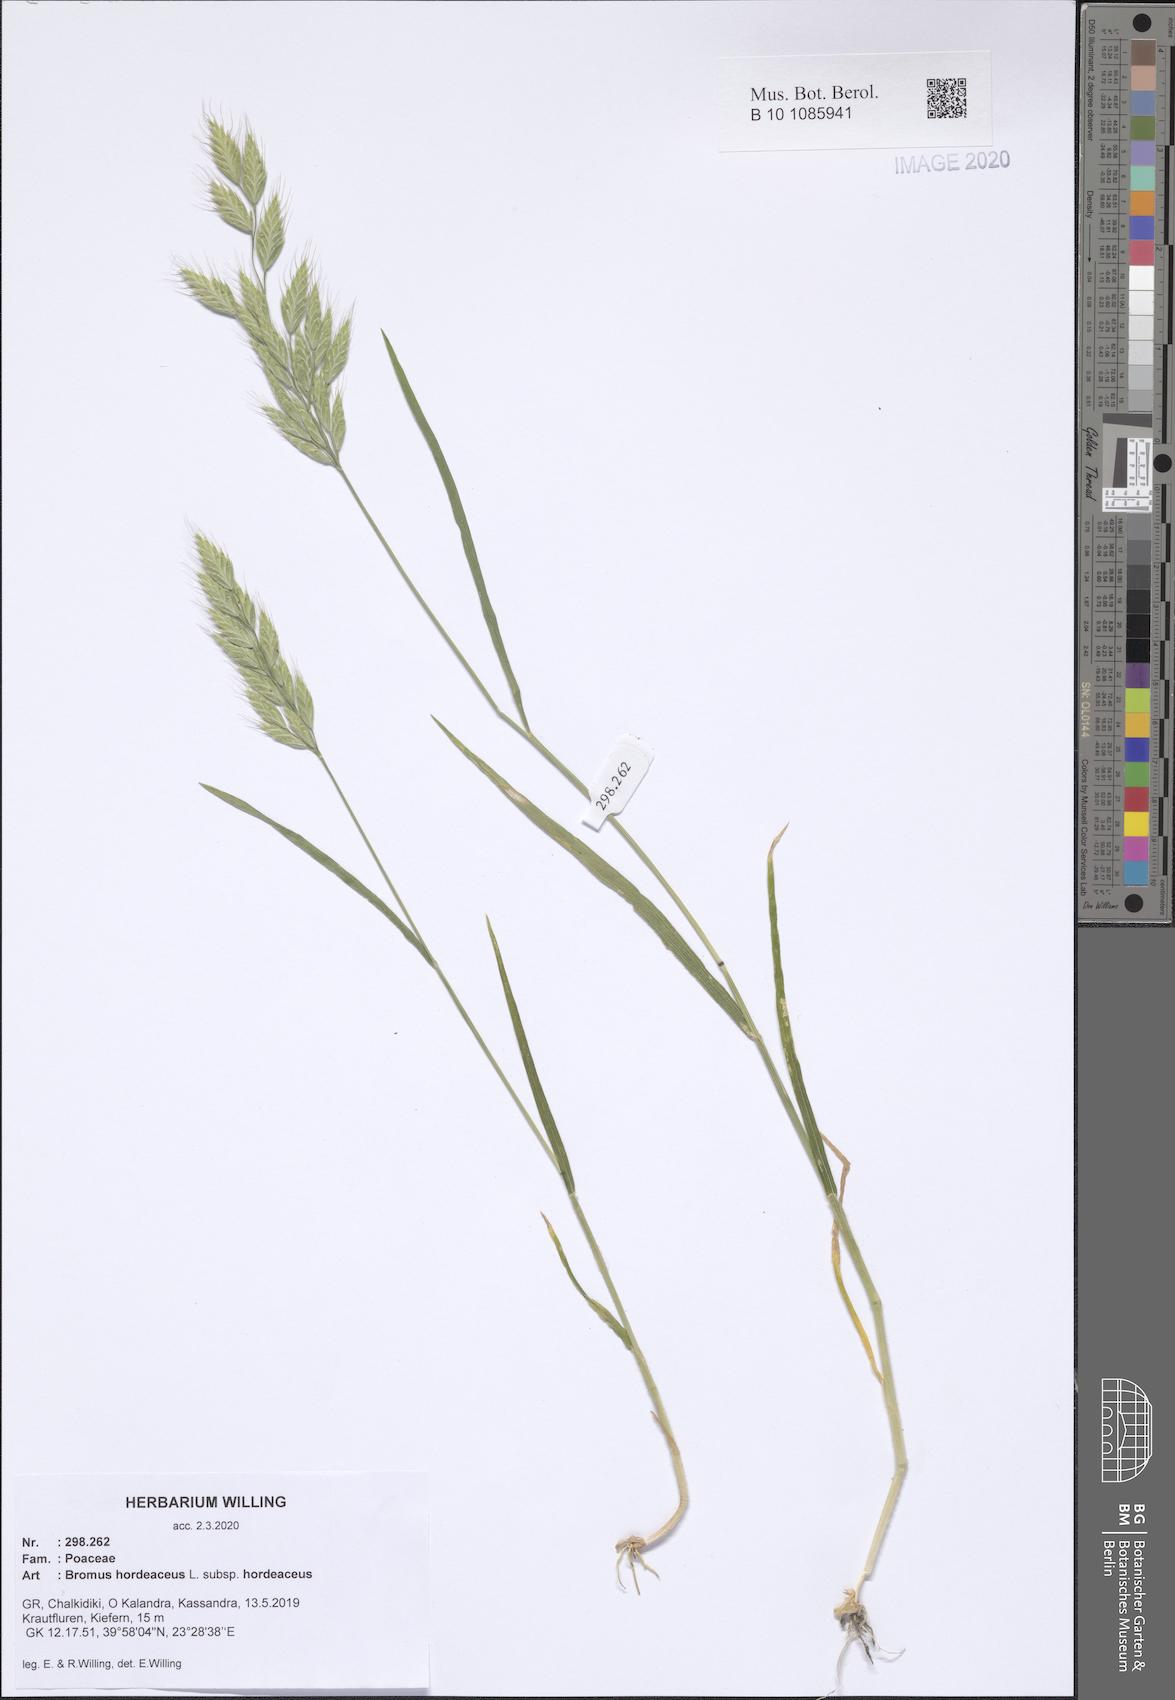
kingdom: Plantae
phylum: Tracheophyta
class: Liliopsida
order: Poales
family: Poaceae
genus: Bromus
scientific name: Bromus hordeaceus
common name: Soft brome
